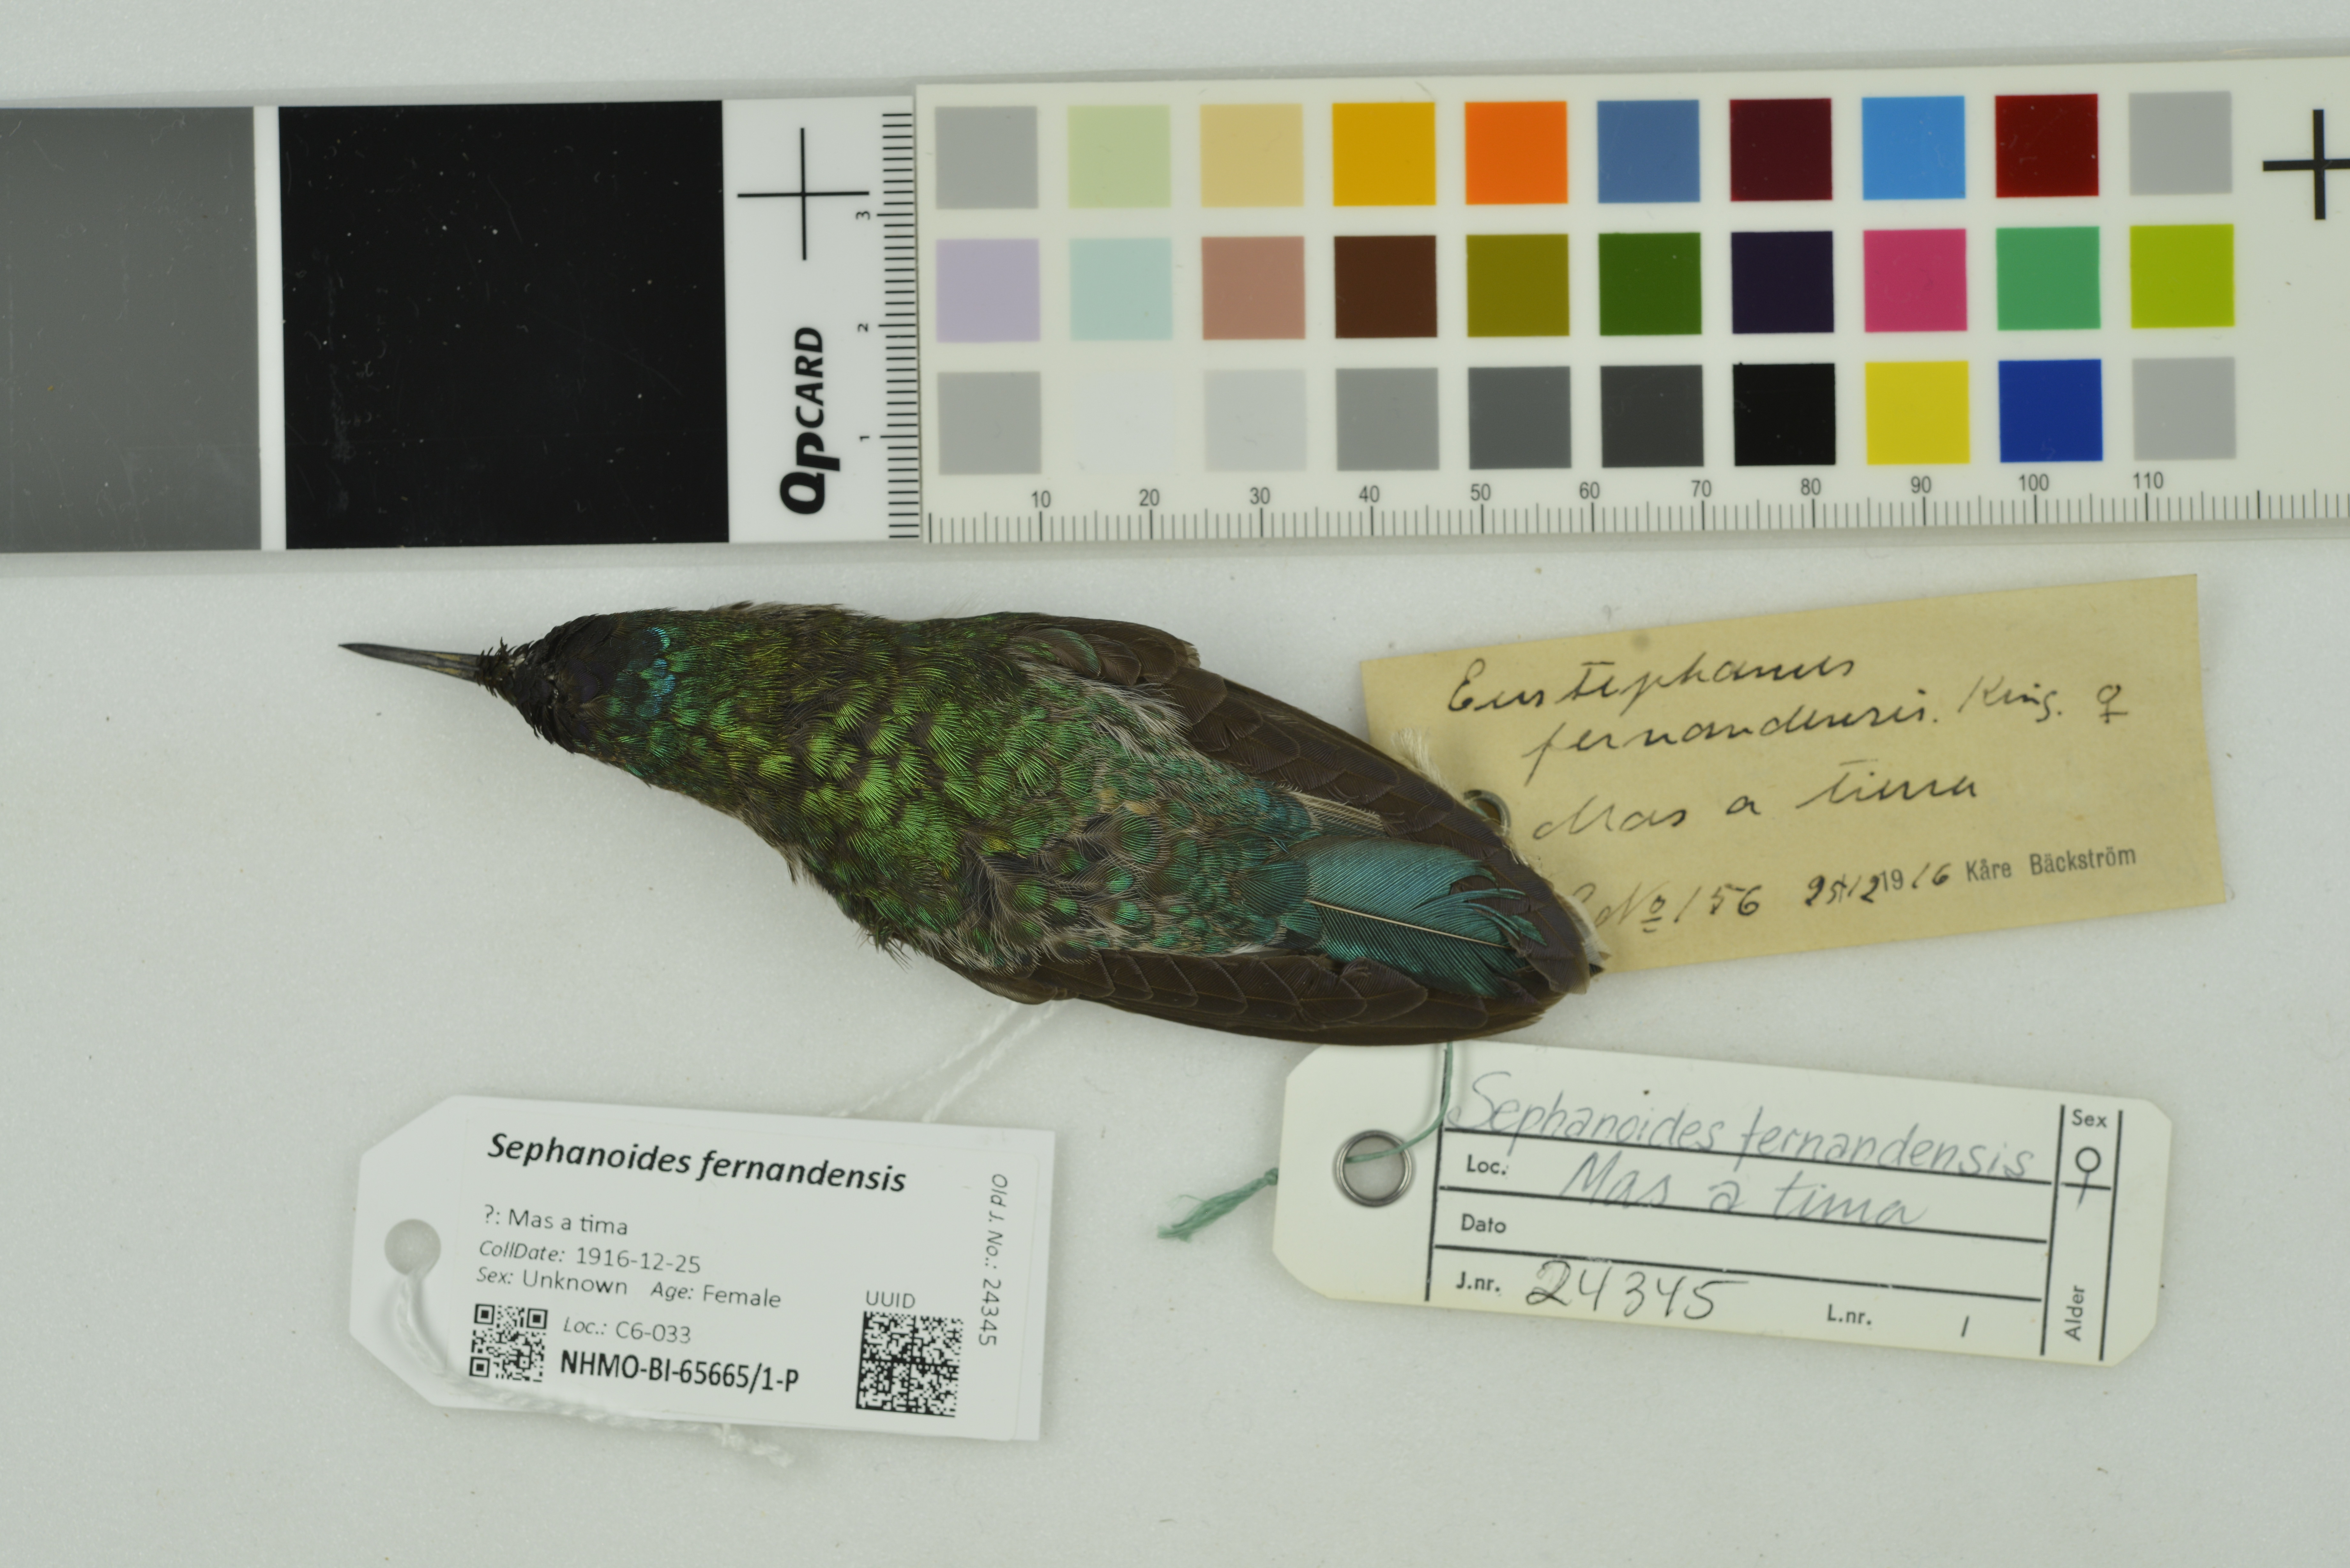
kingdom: Animalia
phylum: Chordata
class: Aves
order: Apodiformes
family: Trochilidae
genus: Sephanoides
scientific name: Sephanoides fernandensis
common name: Juan fernandez firecrown
